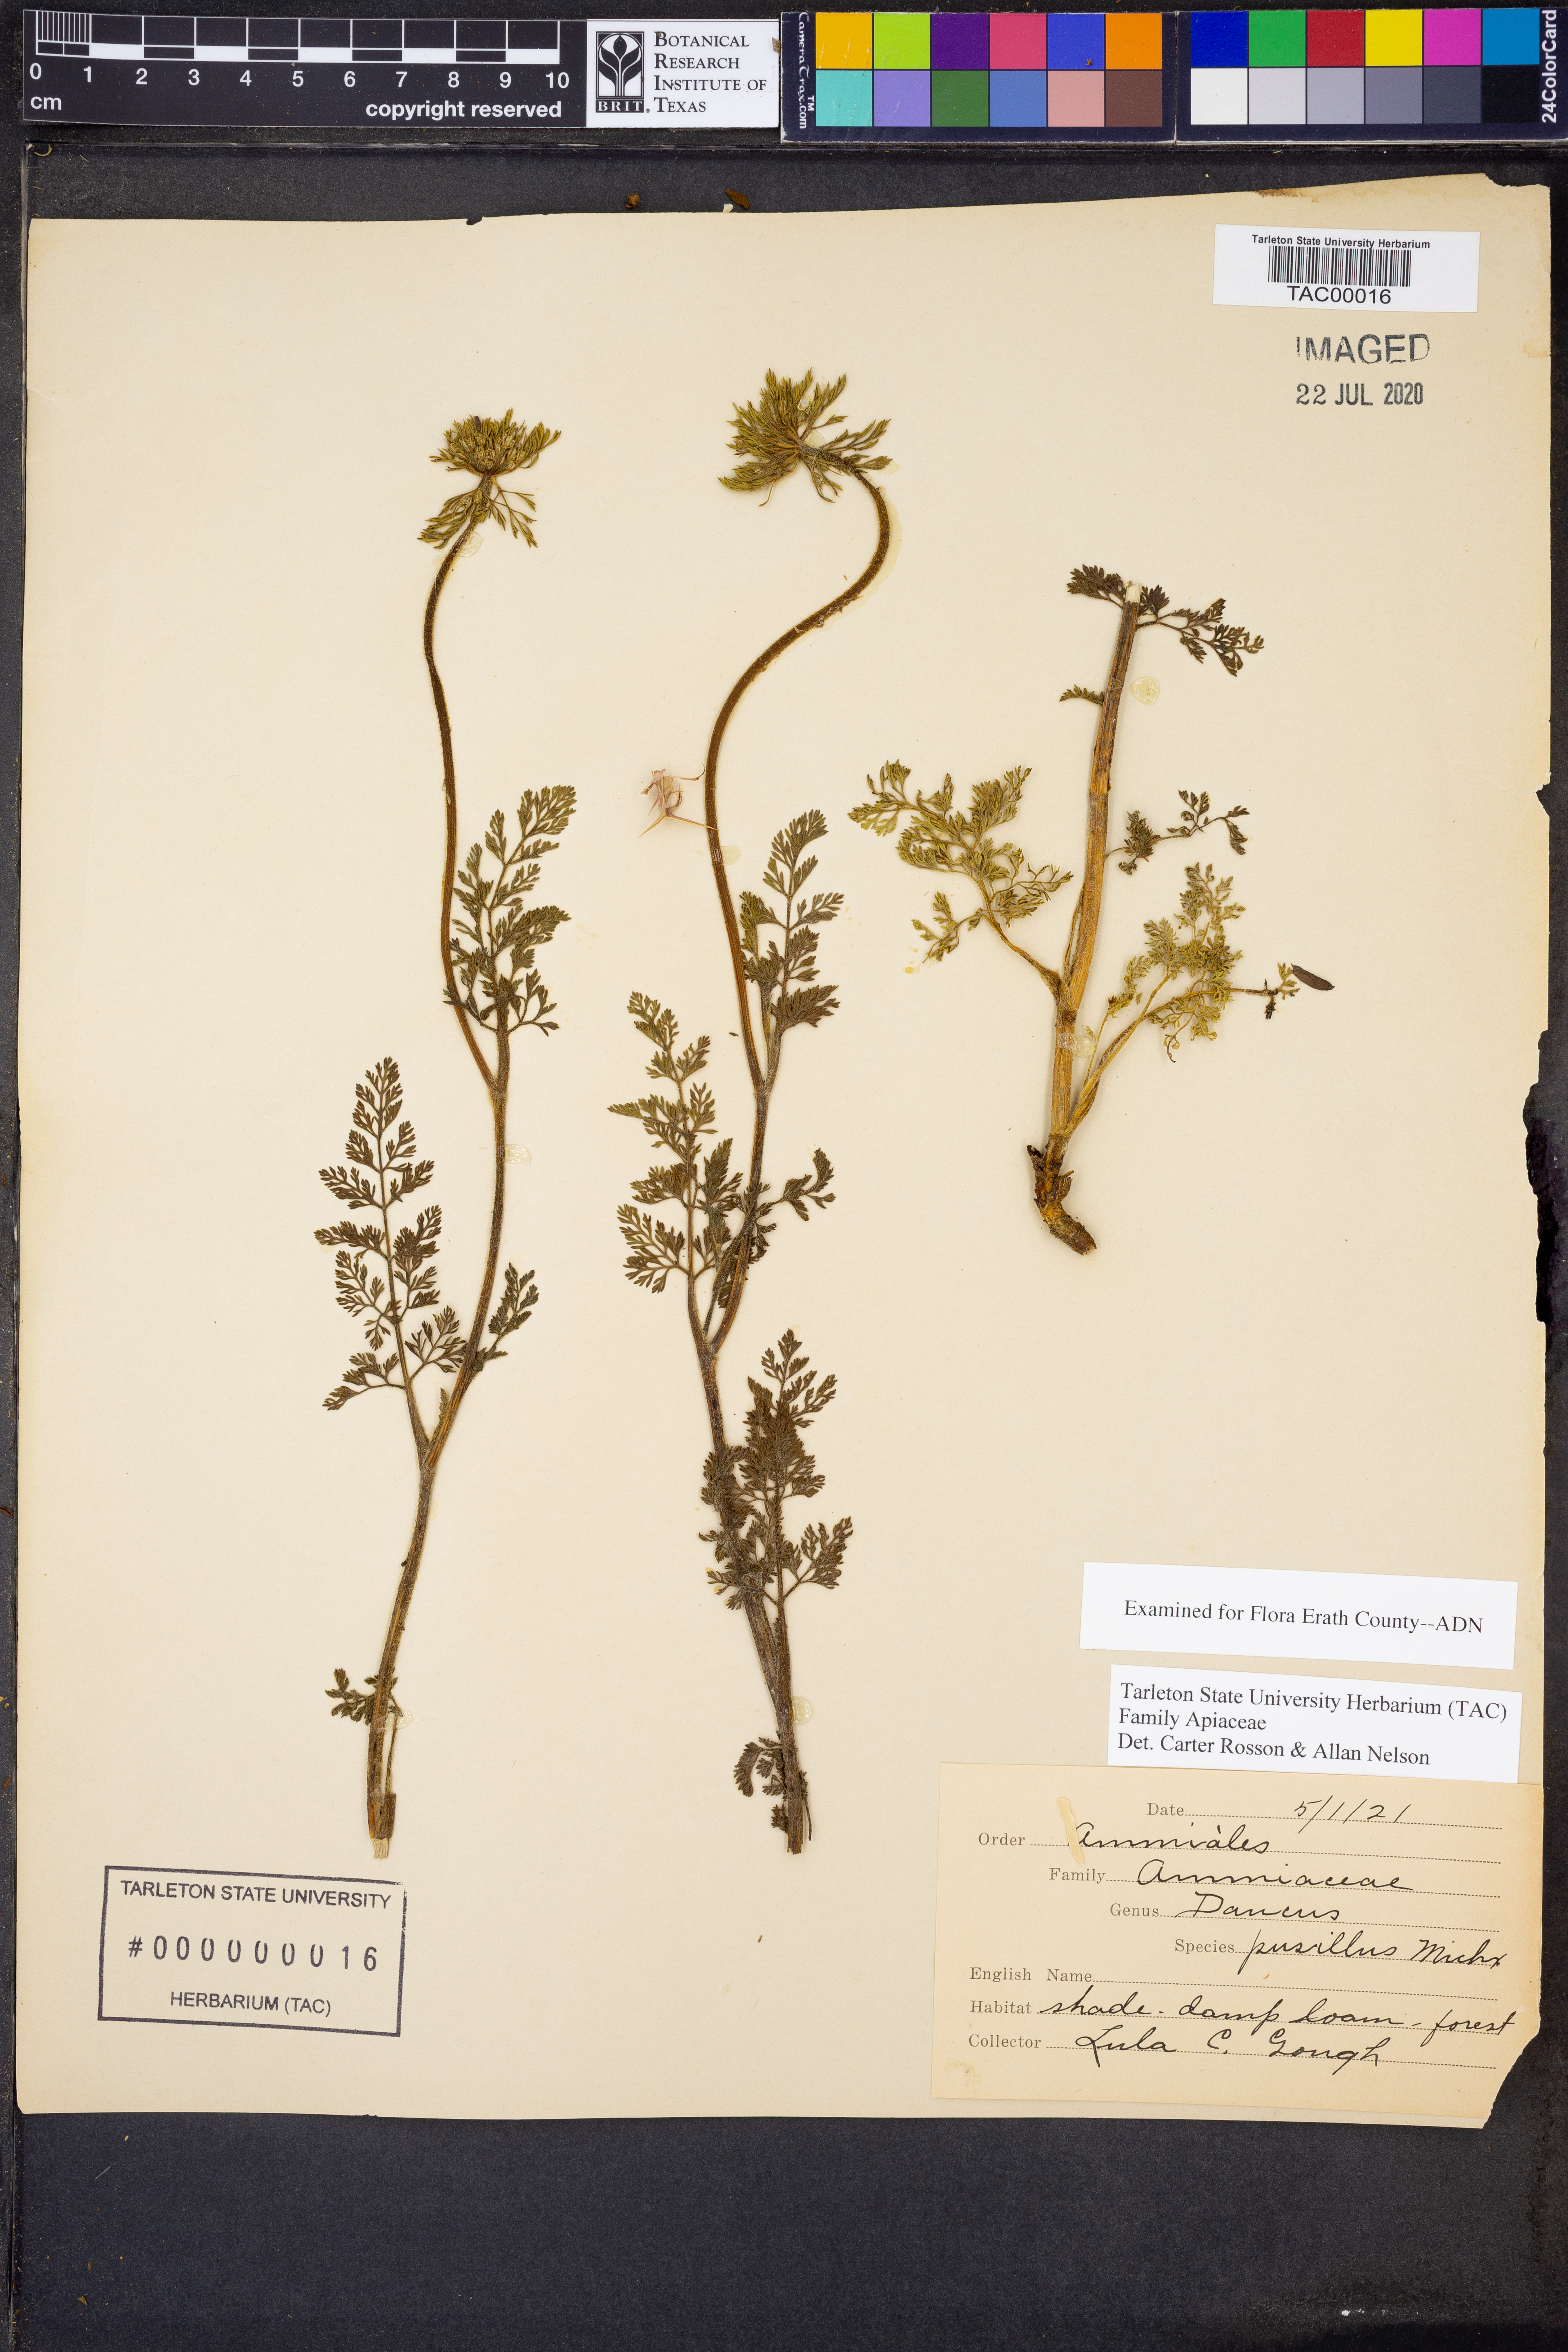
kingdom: Plantae
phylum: Tracheophyta
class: Magnoliopsida
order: Apiales
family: Apiaceae
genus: Daucus
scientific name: Daucus pusillus
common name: Southwest wild carrot
